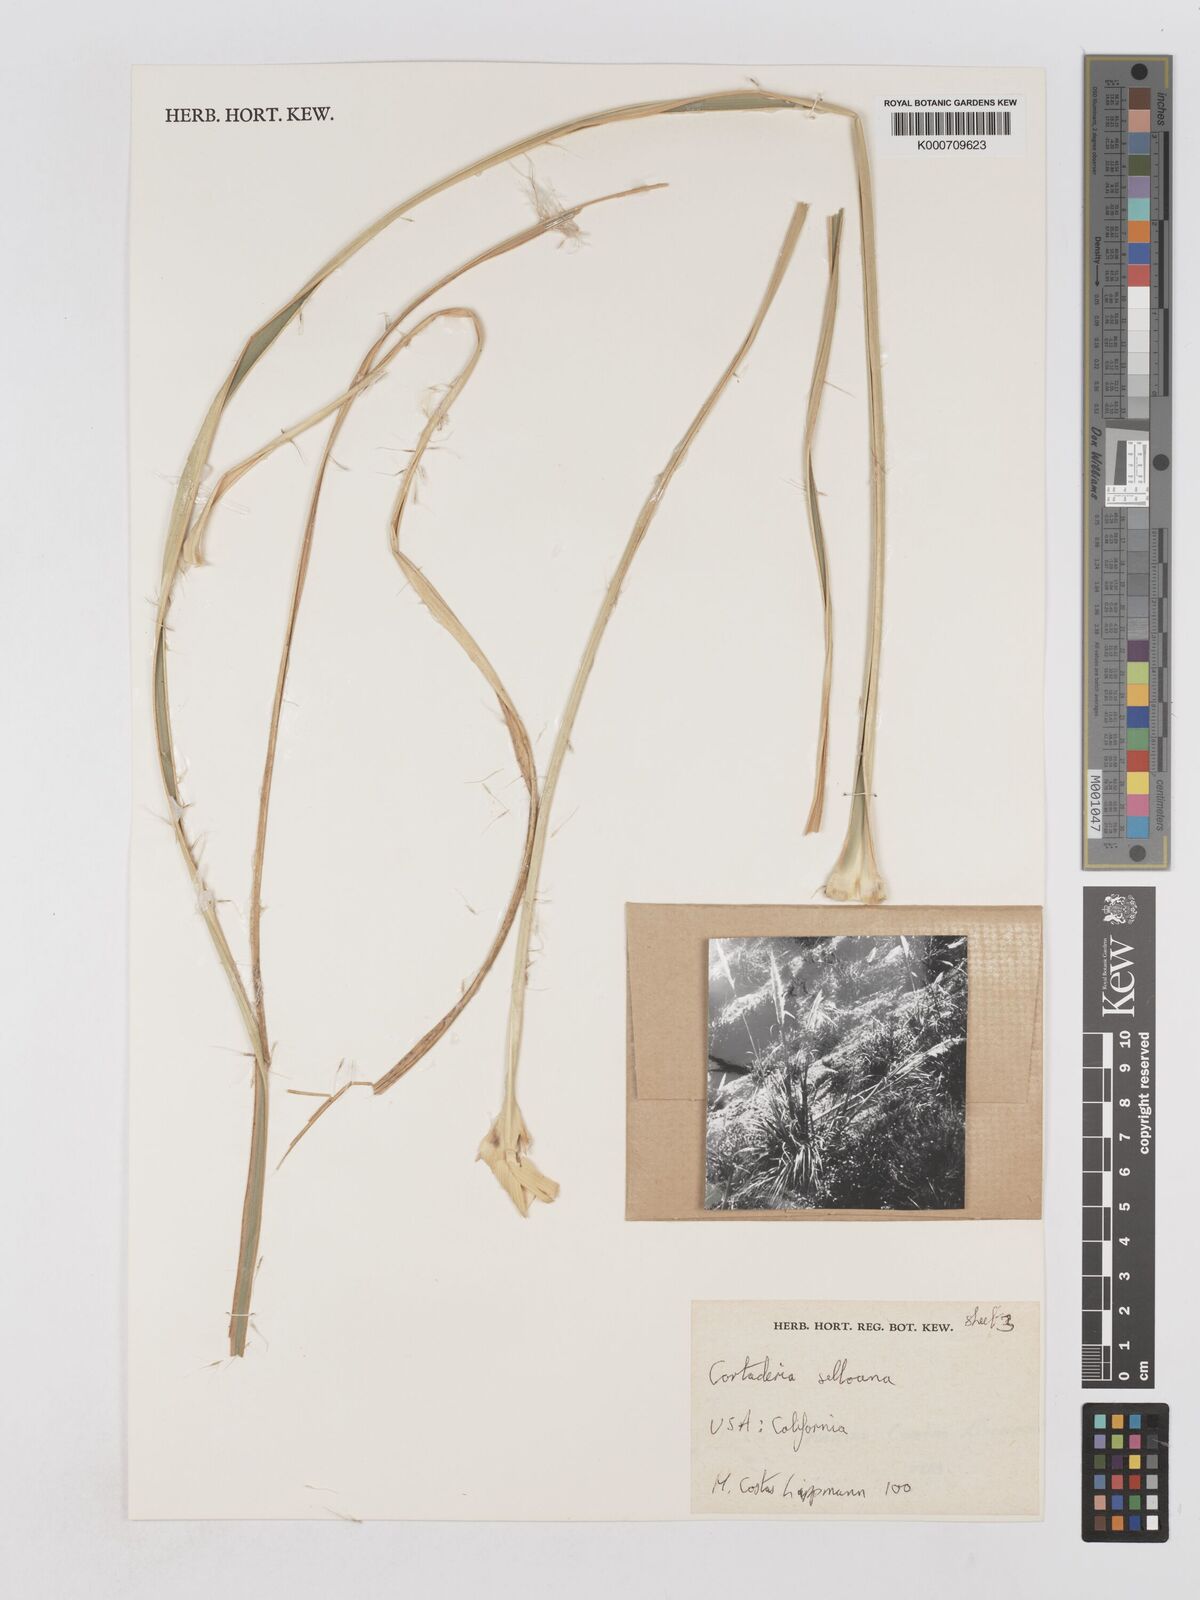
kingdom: Plantae
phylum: Tracheophyta
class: Liliopsida
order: Poales
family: Poaceae
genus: Cortaderia
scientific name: Cortaderia selloana
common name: Uruguayan pampas grass
